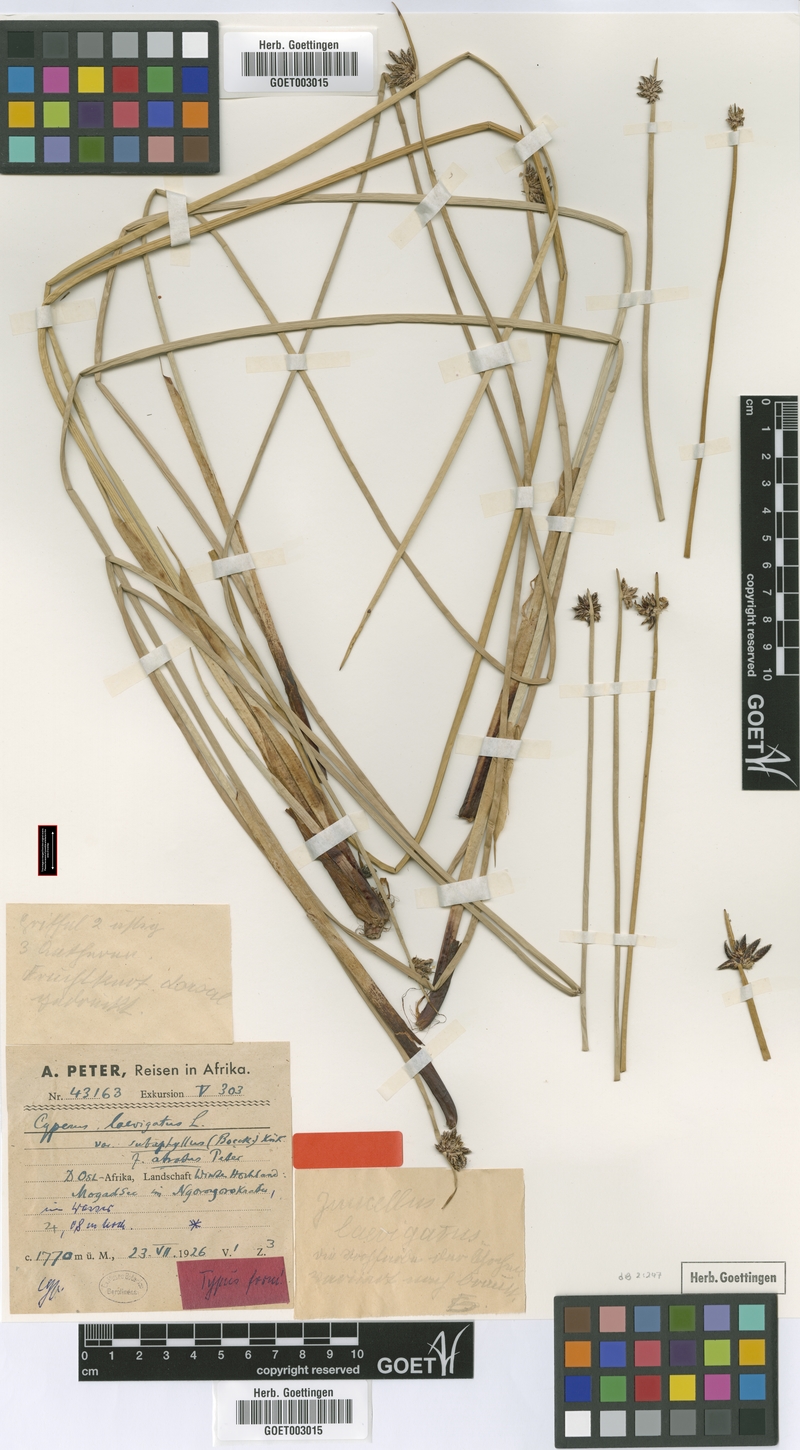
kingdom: Plantae
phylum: Tracheophyta
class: Liliopsida
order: Poales
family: Cyperaceae
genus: Cyperus
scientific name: Cyperus laevigatus
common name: Smooth flat sedge
